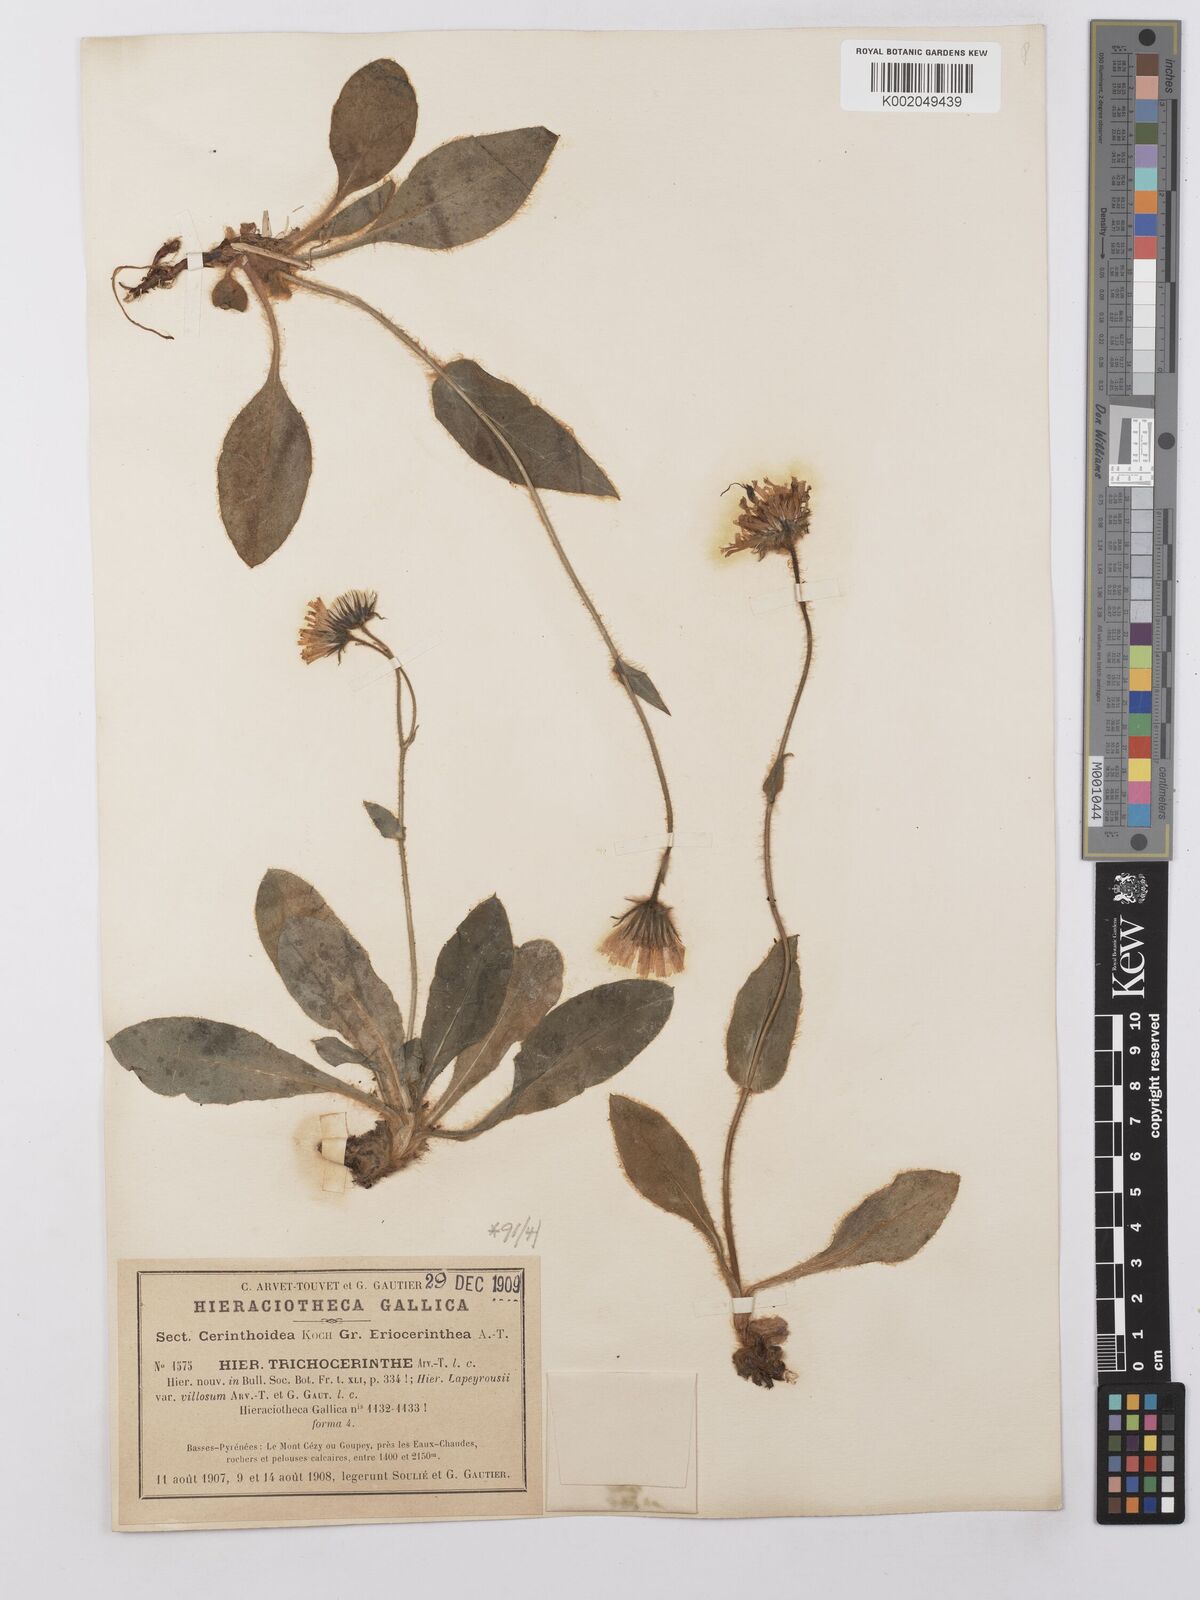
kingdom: Plantae
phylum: Tracheophyta
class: Magnoliopsida
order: Asterales
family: Asteraceae
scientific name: Asteraceae
